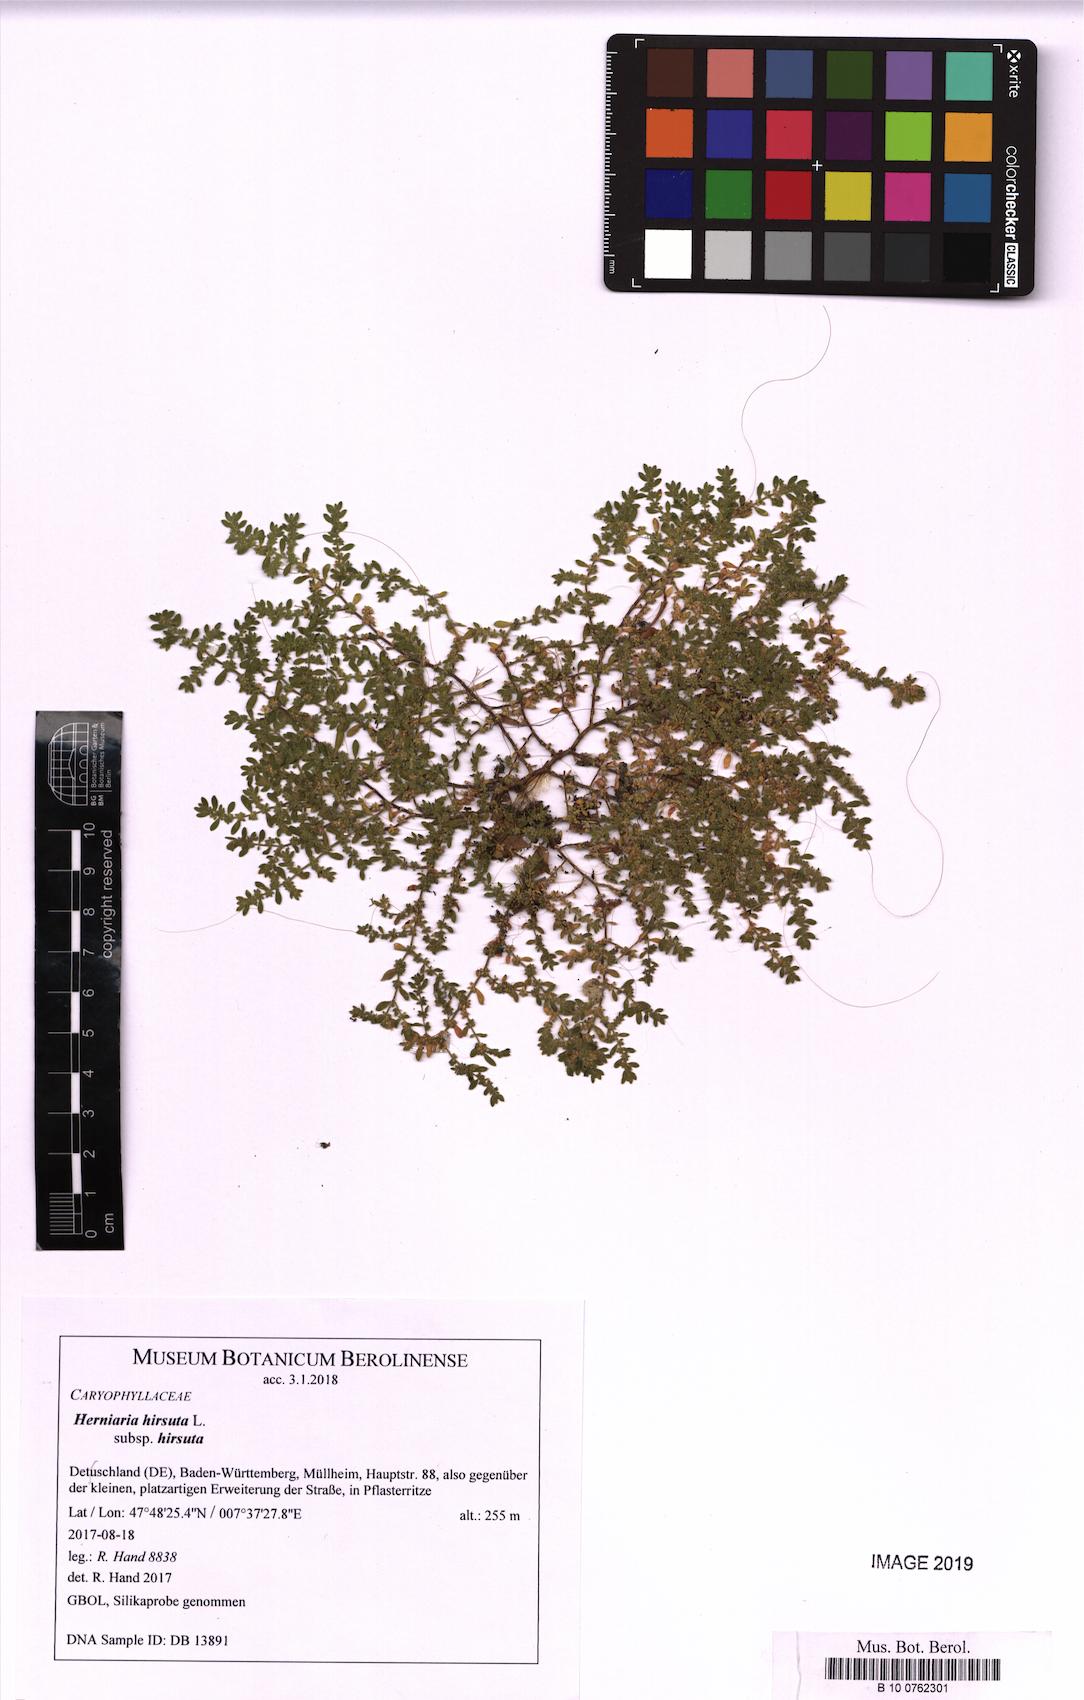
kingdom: Plantae
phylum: Tracheophyta
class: Magnoliopsida
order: Caryophyllales
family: Caryophyllaceae
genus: Herniaria
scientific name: Herniaria hirsuta
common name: Hairy rupturewort
